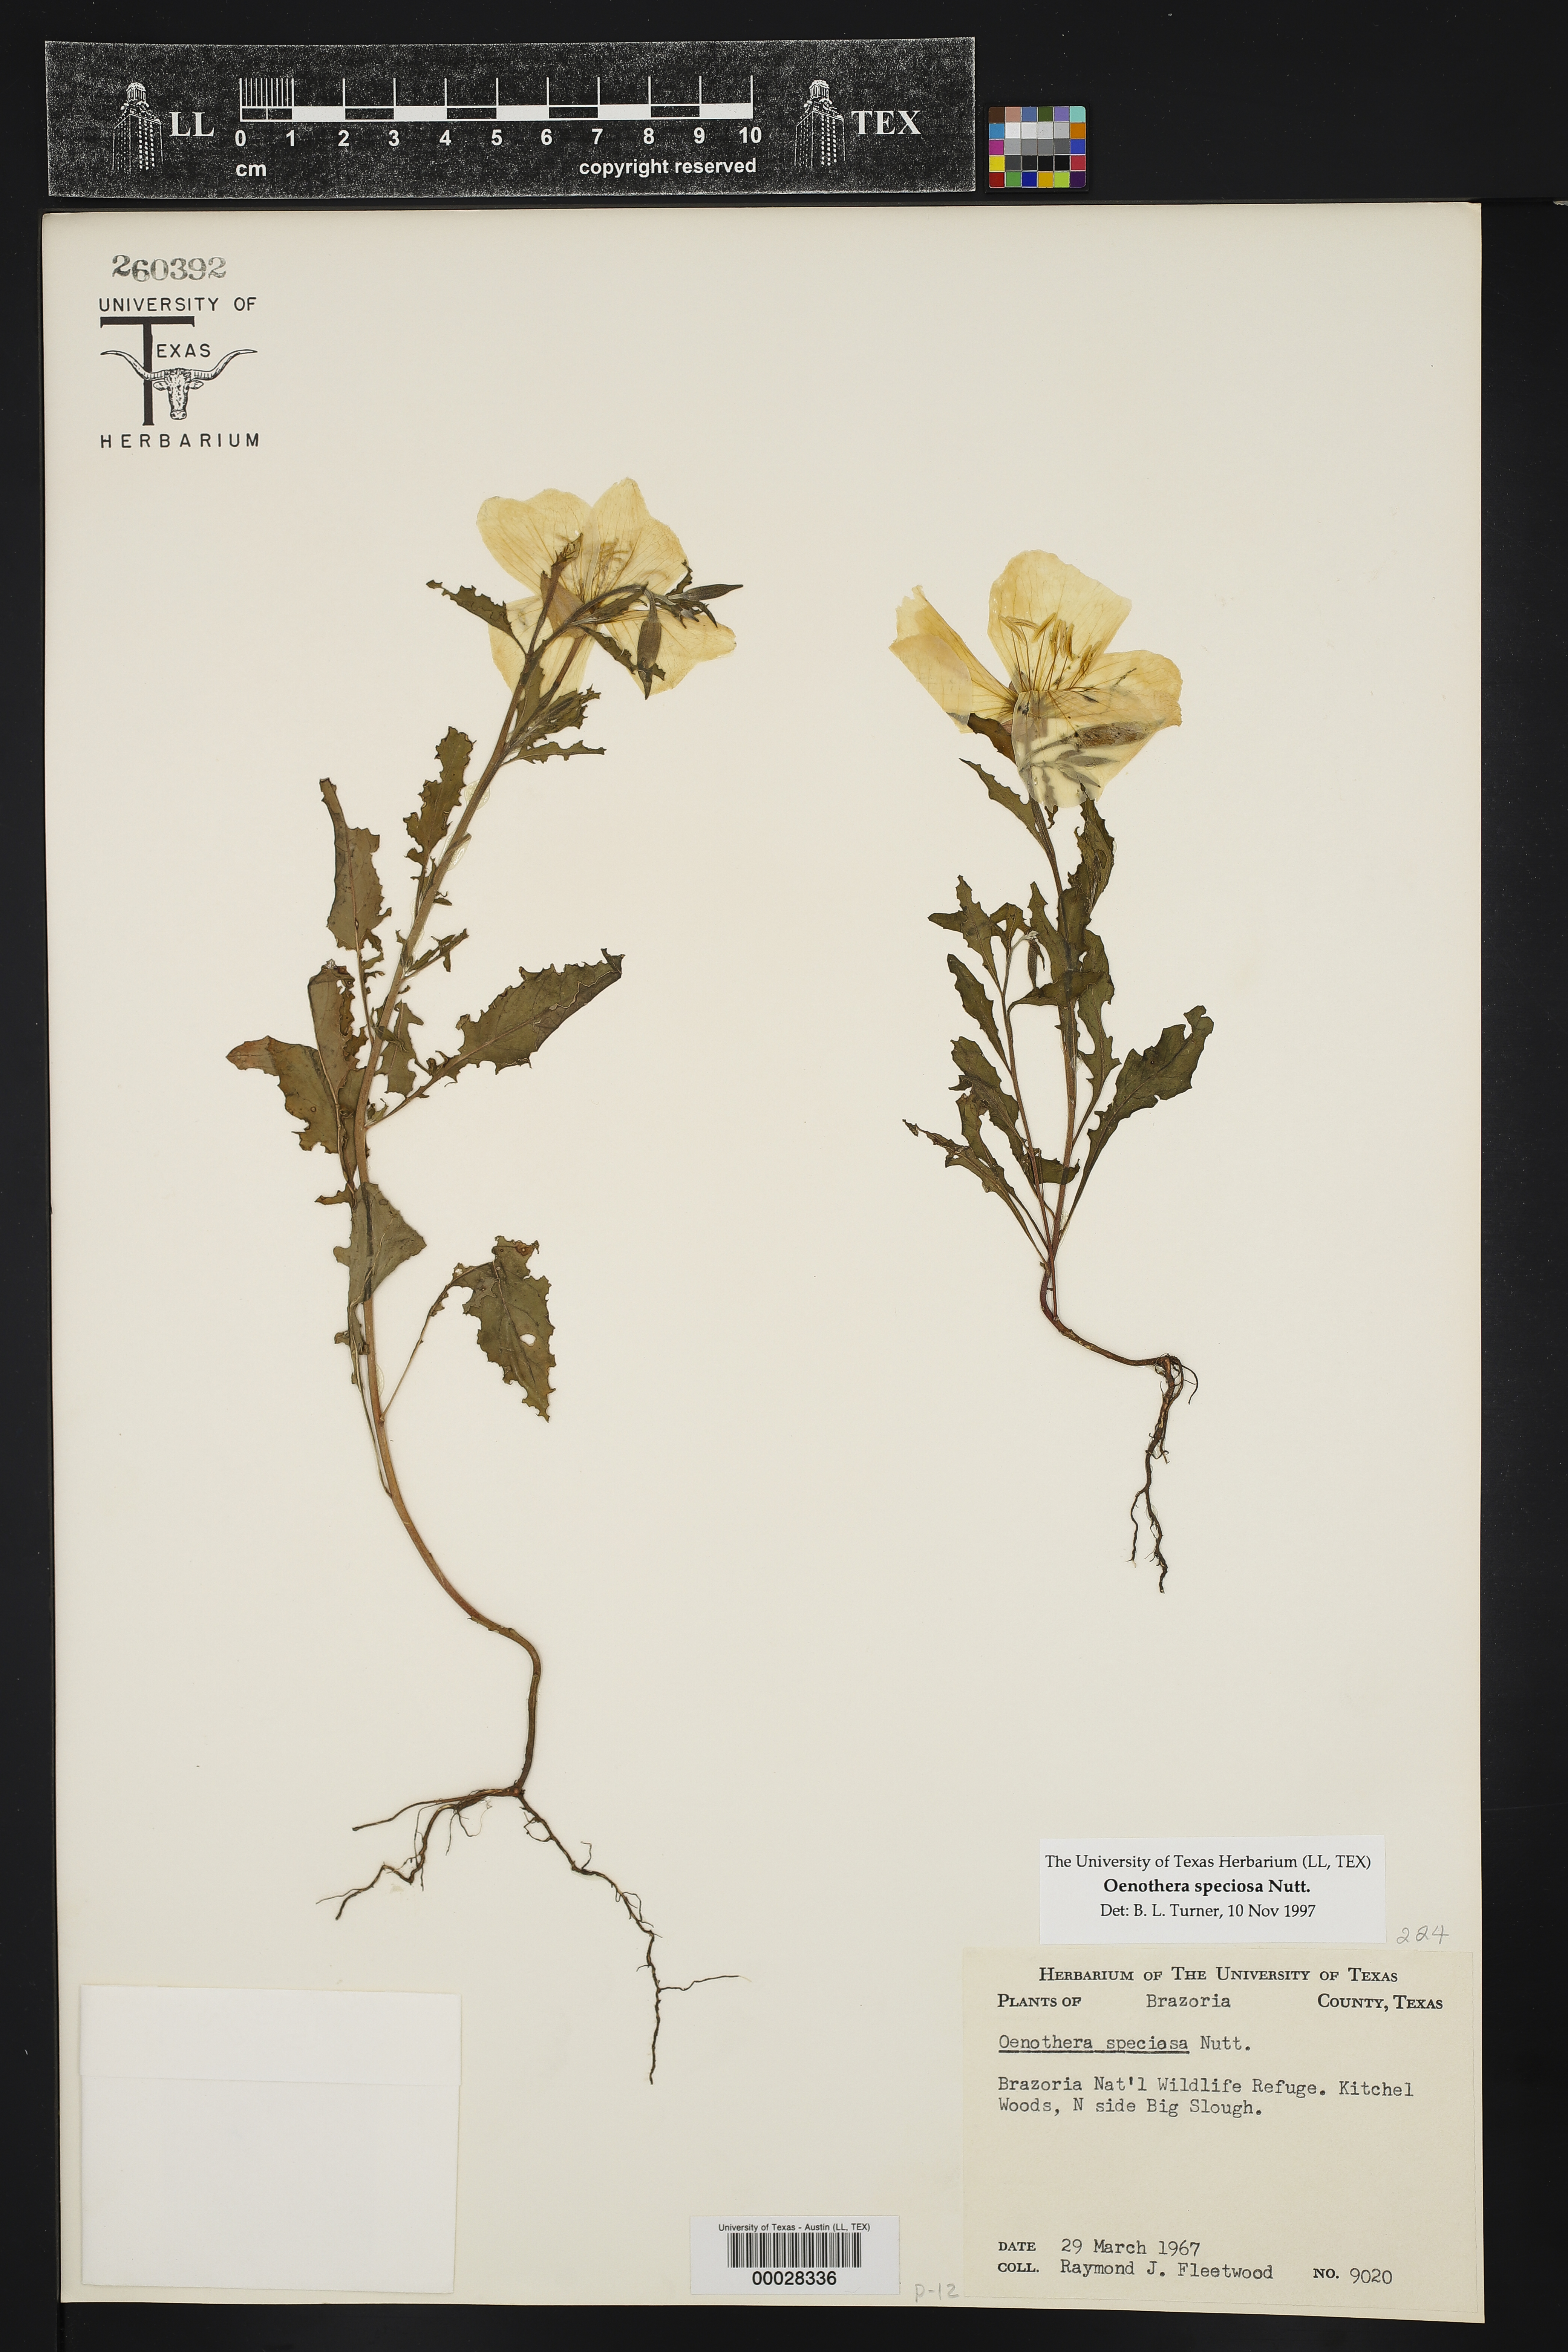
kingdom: Plantae
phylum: Tracheophyta
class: Magnoliopsida
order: Myrtales
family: Onagraceae
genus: Oenothera
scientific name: Oenothera speciosa
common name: White evening-primrose
